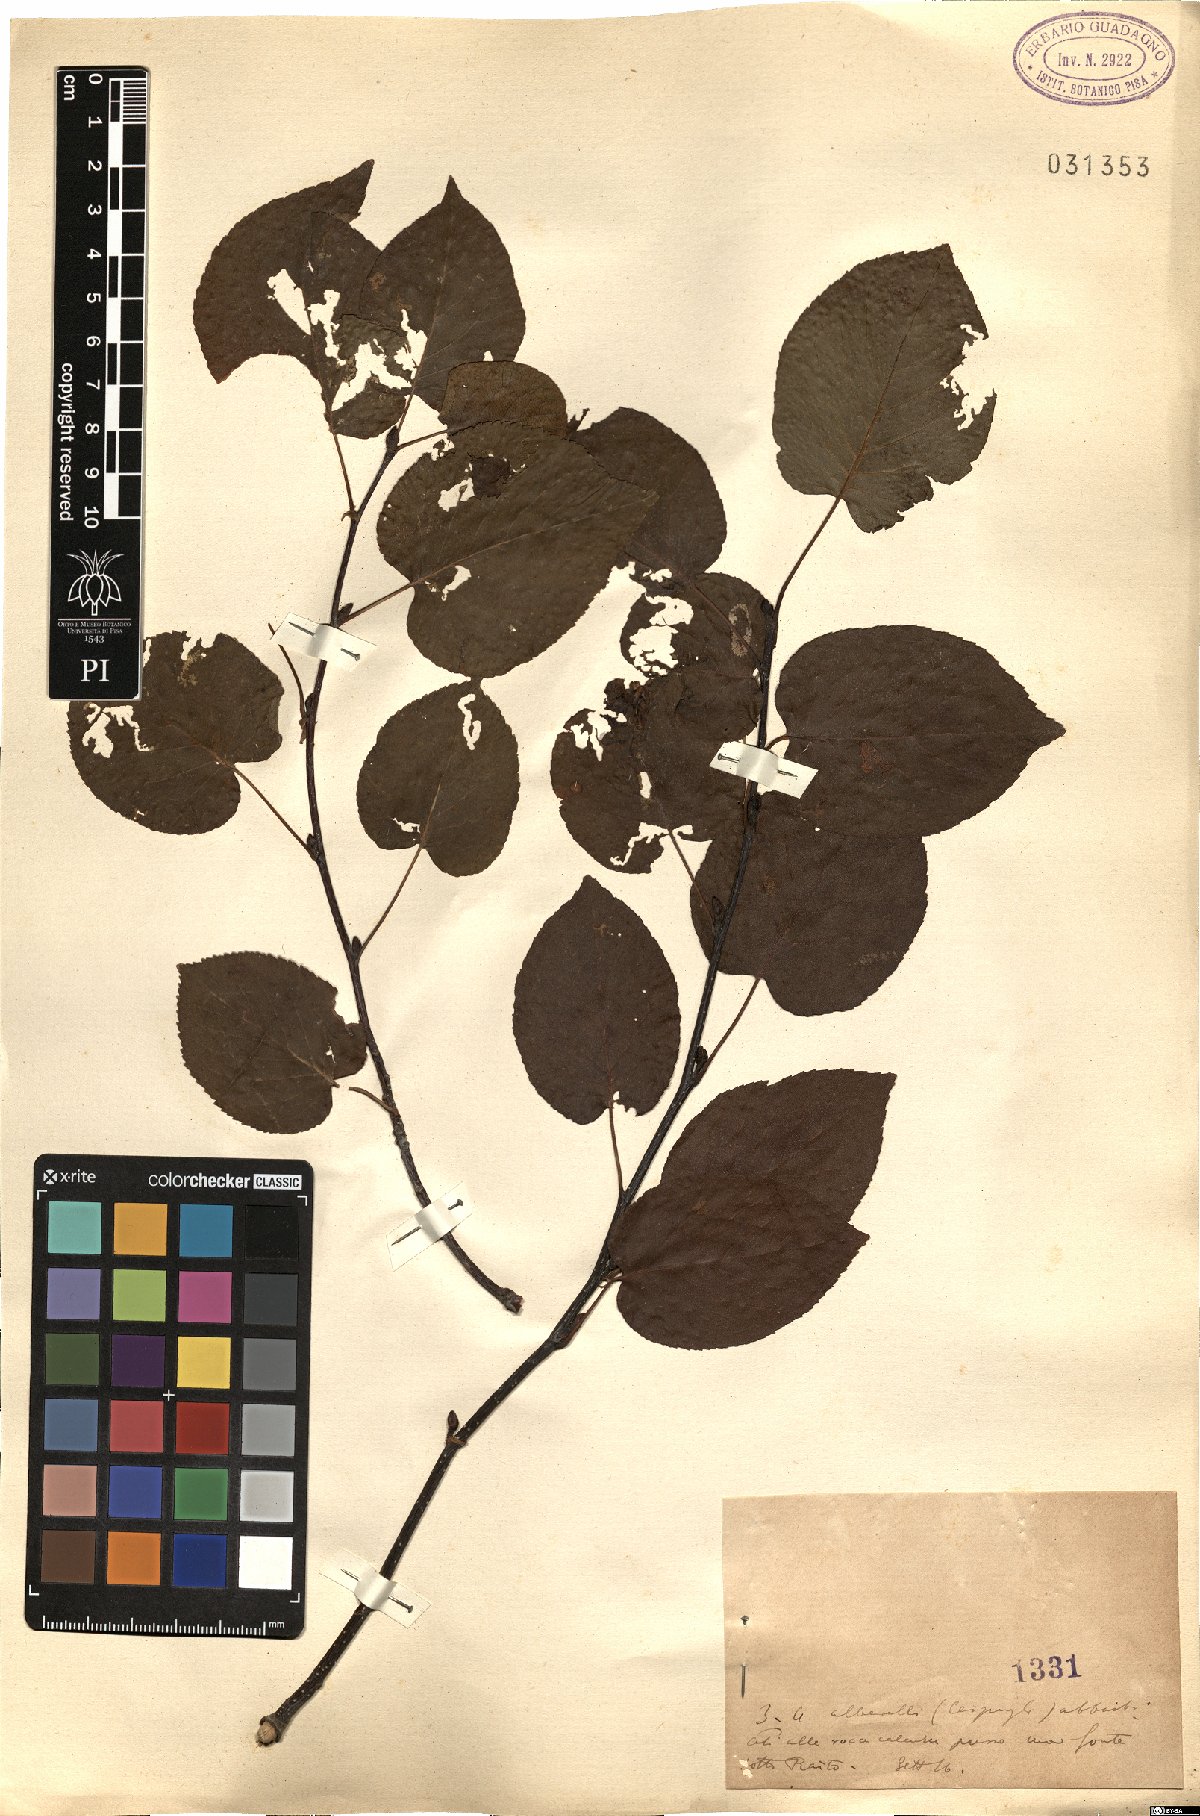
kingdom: Plantae
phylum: Tracheophyta
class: Magnoliopsida
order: Fagales
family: Betulaceae
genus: Alnus
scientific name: Alnus
